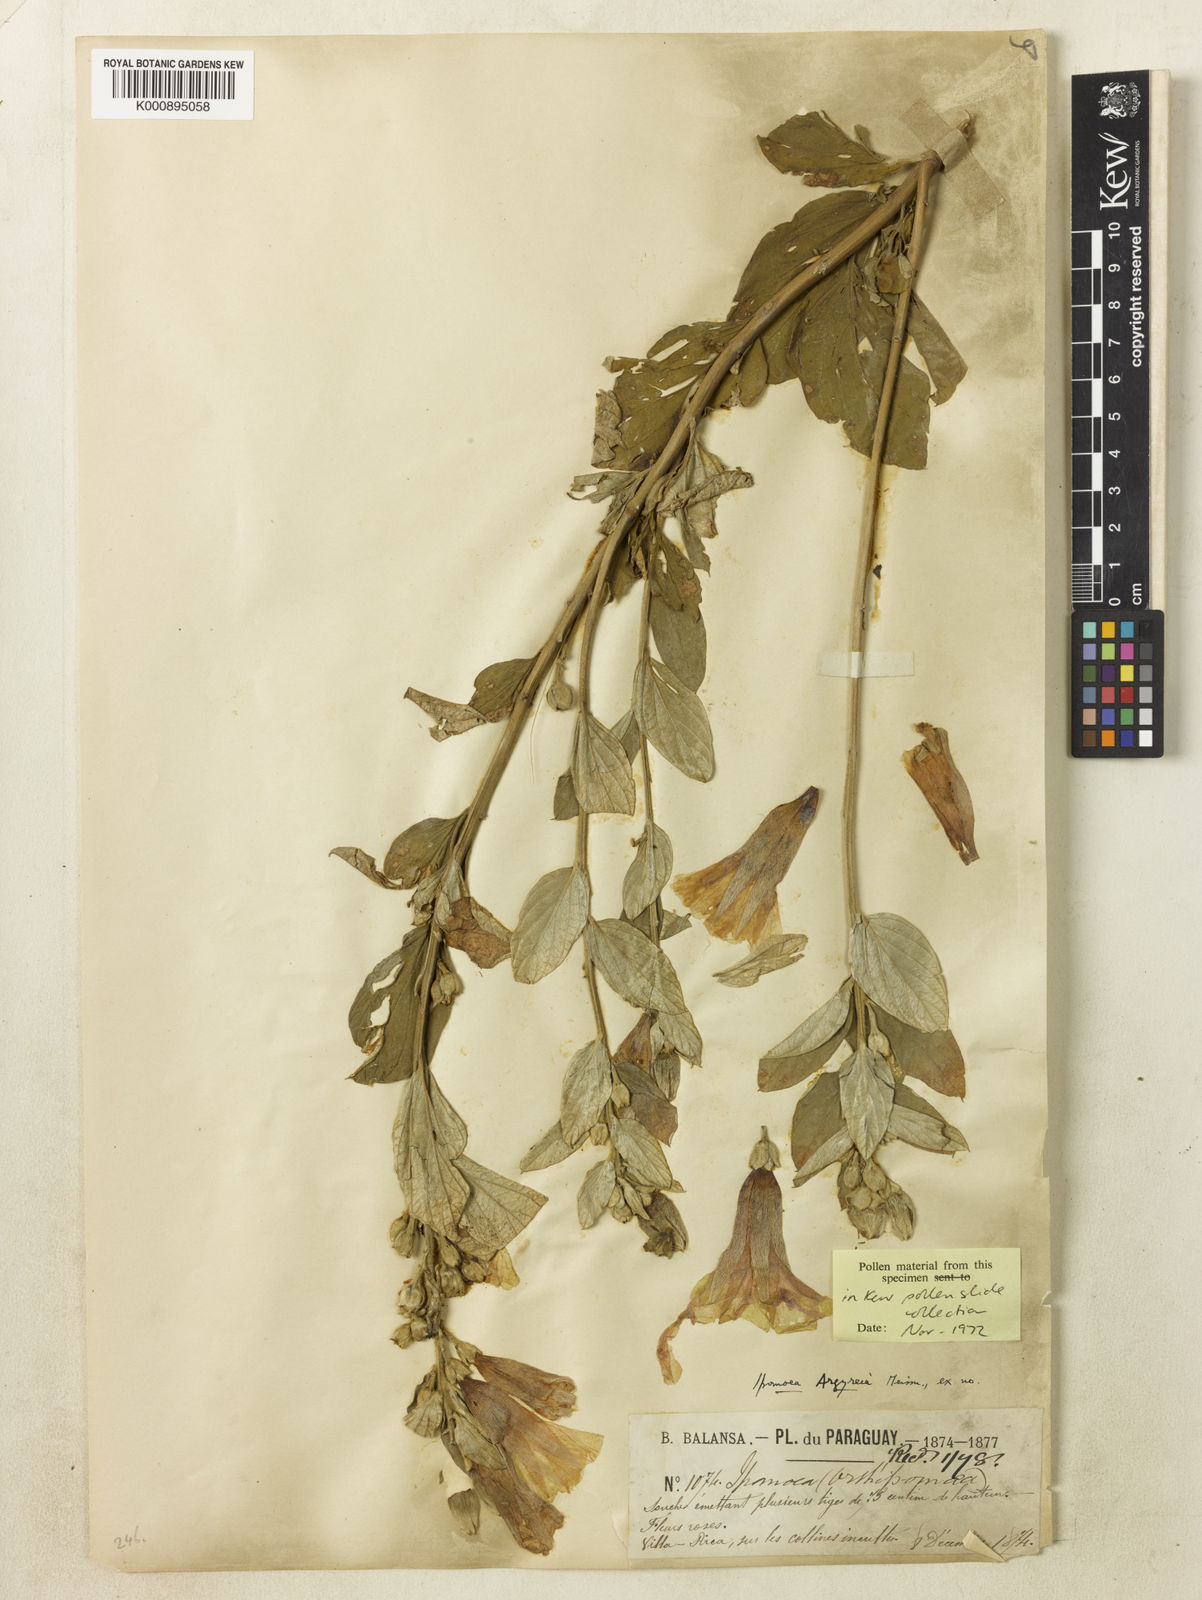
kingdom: Plantae
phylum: Tracheophyta
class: Magnoliopsida
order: Solanales
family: Convolvulaceae
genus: Ipomoea
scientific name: Ipomoea argyreia
